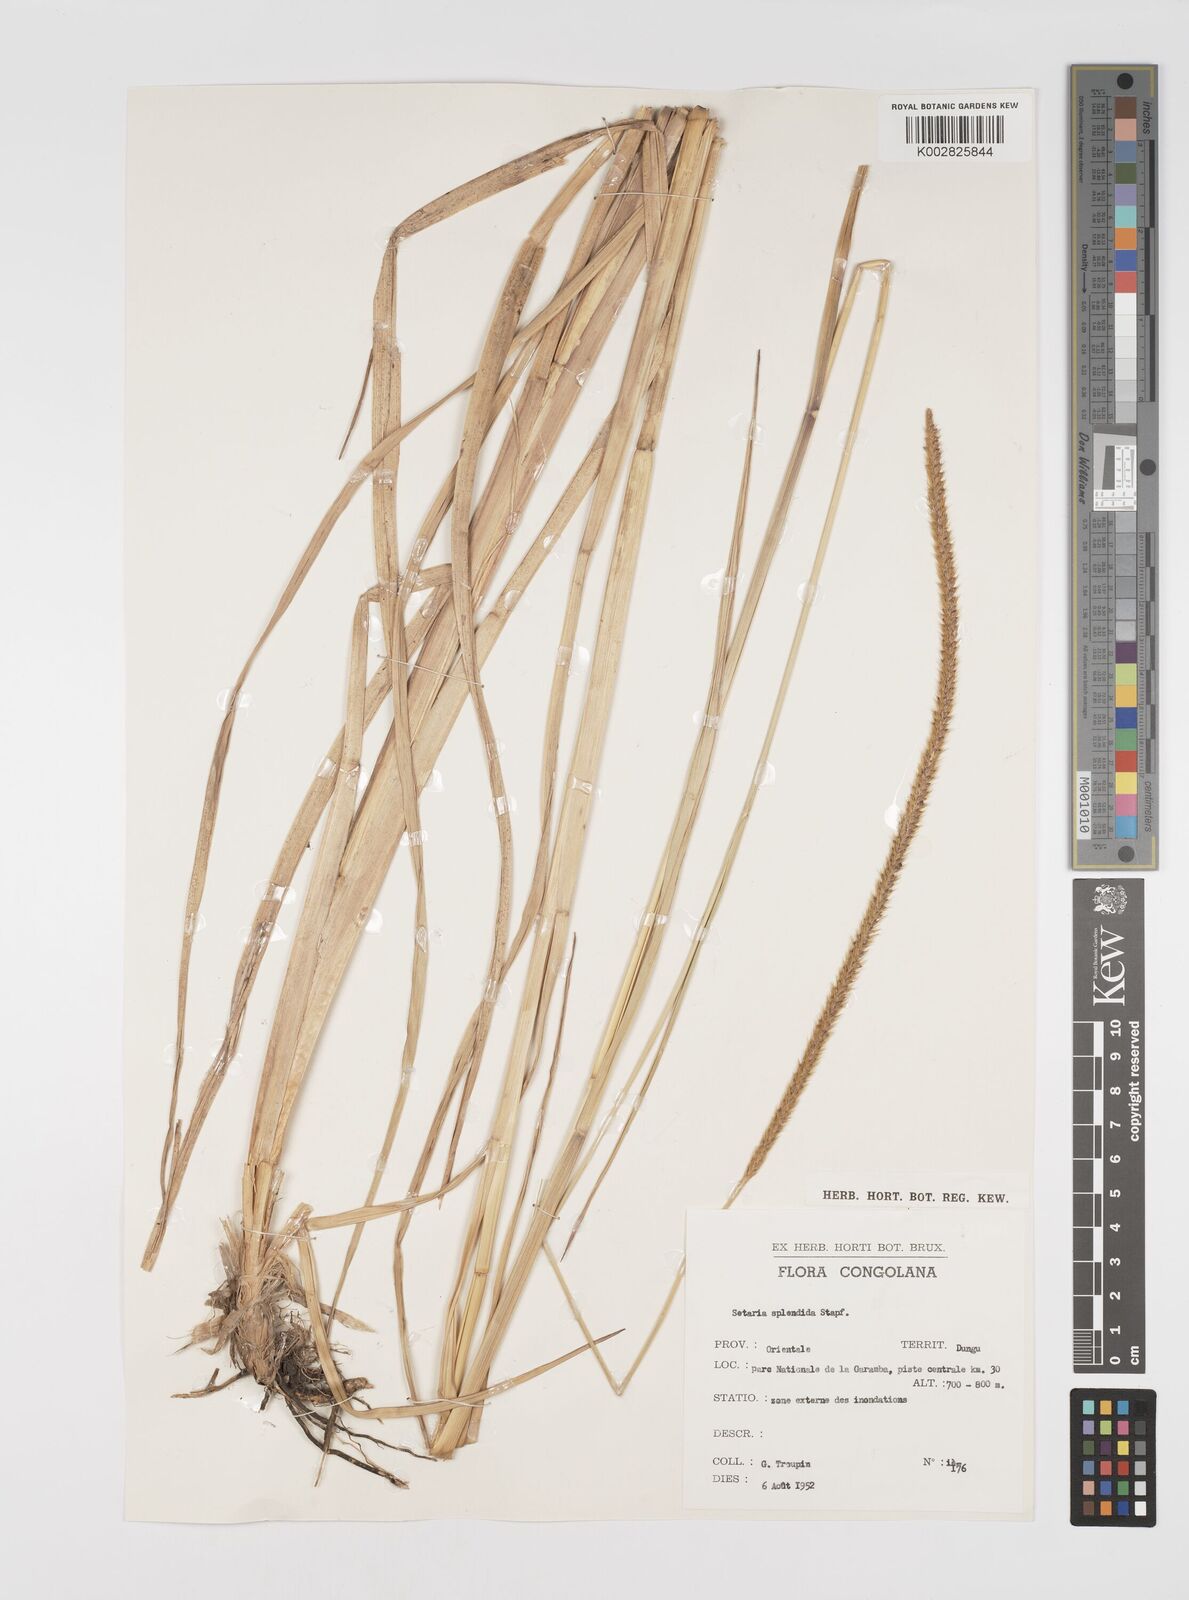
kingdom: Plantae
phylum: Tracheophyta
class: Liliopsida
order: Poales
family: Poaceae
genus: Setaria
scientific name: Setaria sphacelata
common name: African bristlegrass
